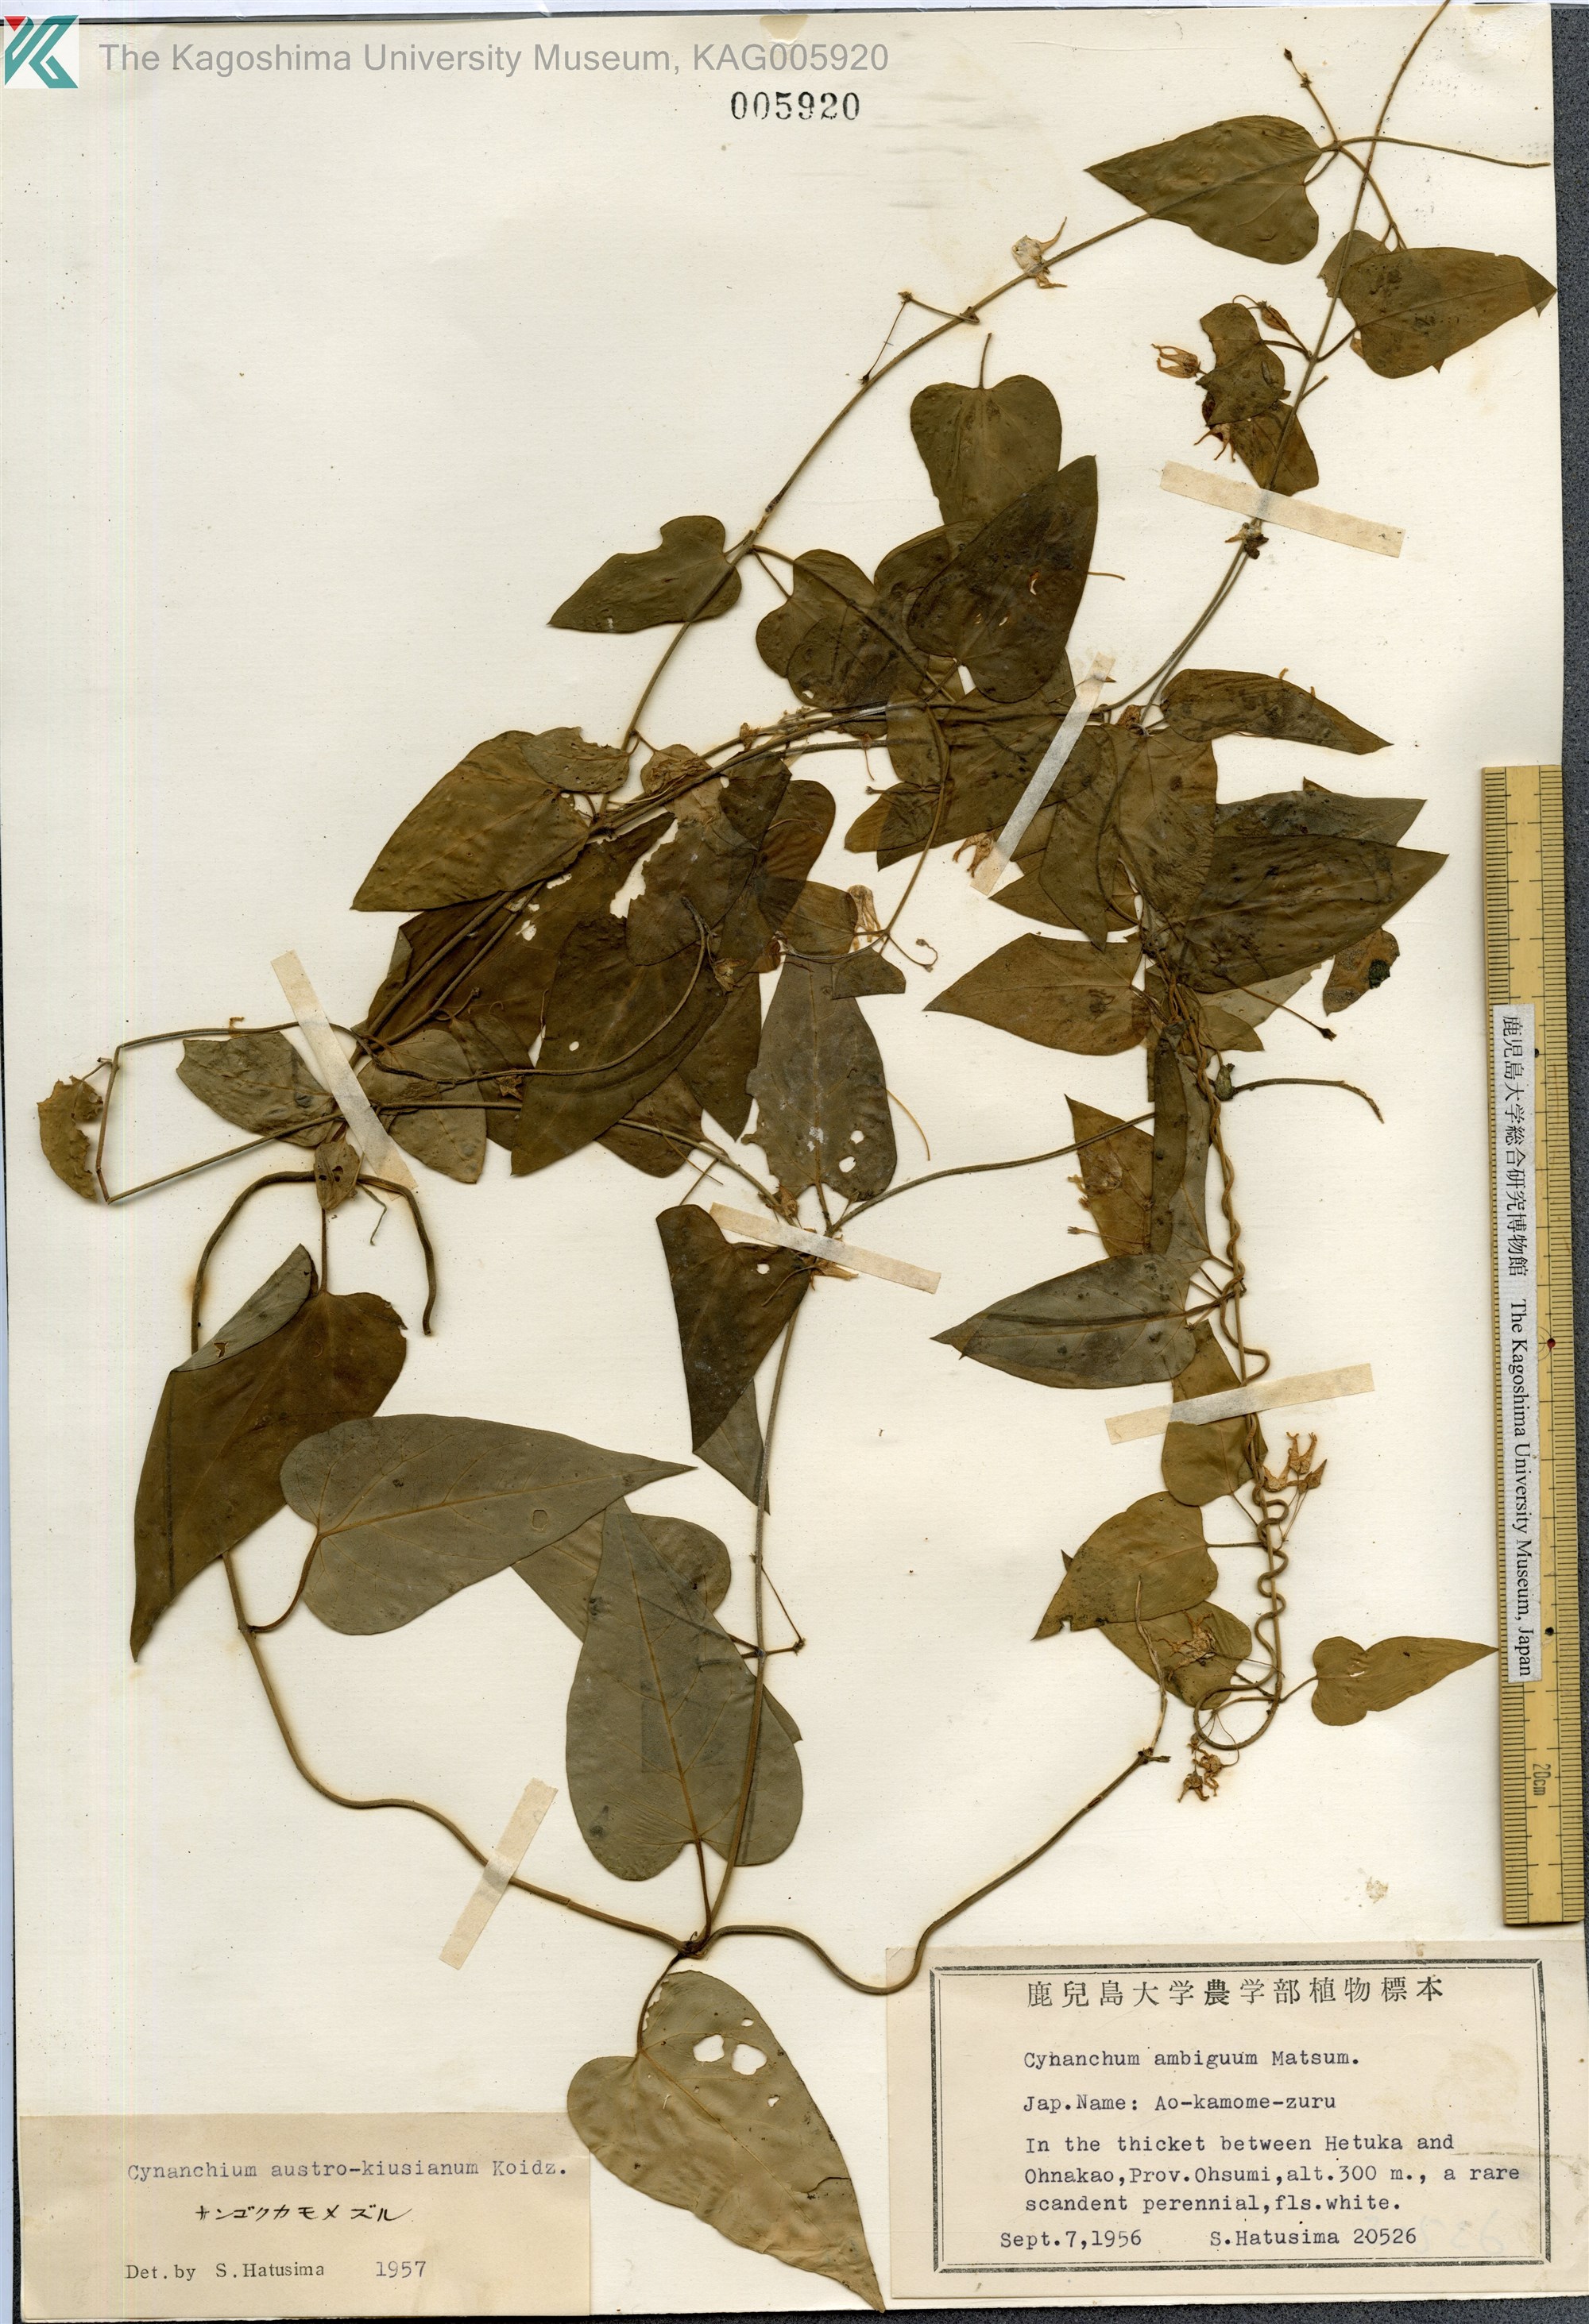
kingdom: Plantae
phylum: Tracheophyta
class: Magnoliopsida
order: Gentianales
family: Apocynaceae
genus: Vincetoxicum
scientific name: Vincetoxicum austrokiusianum
